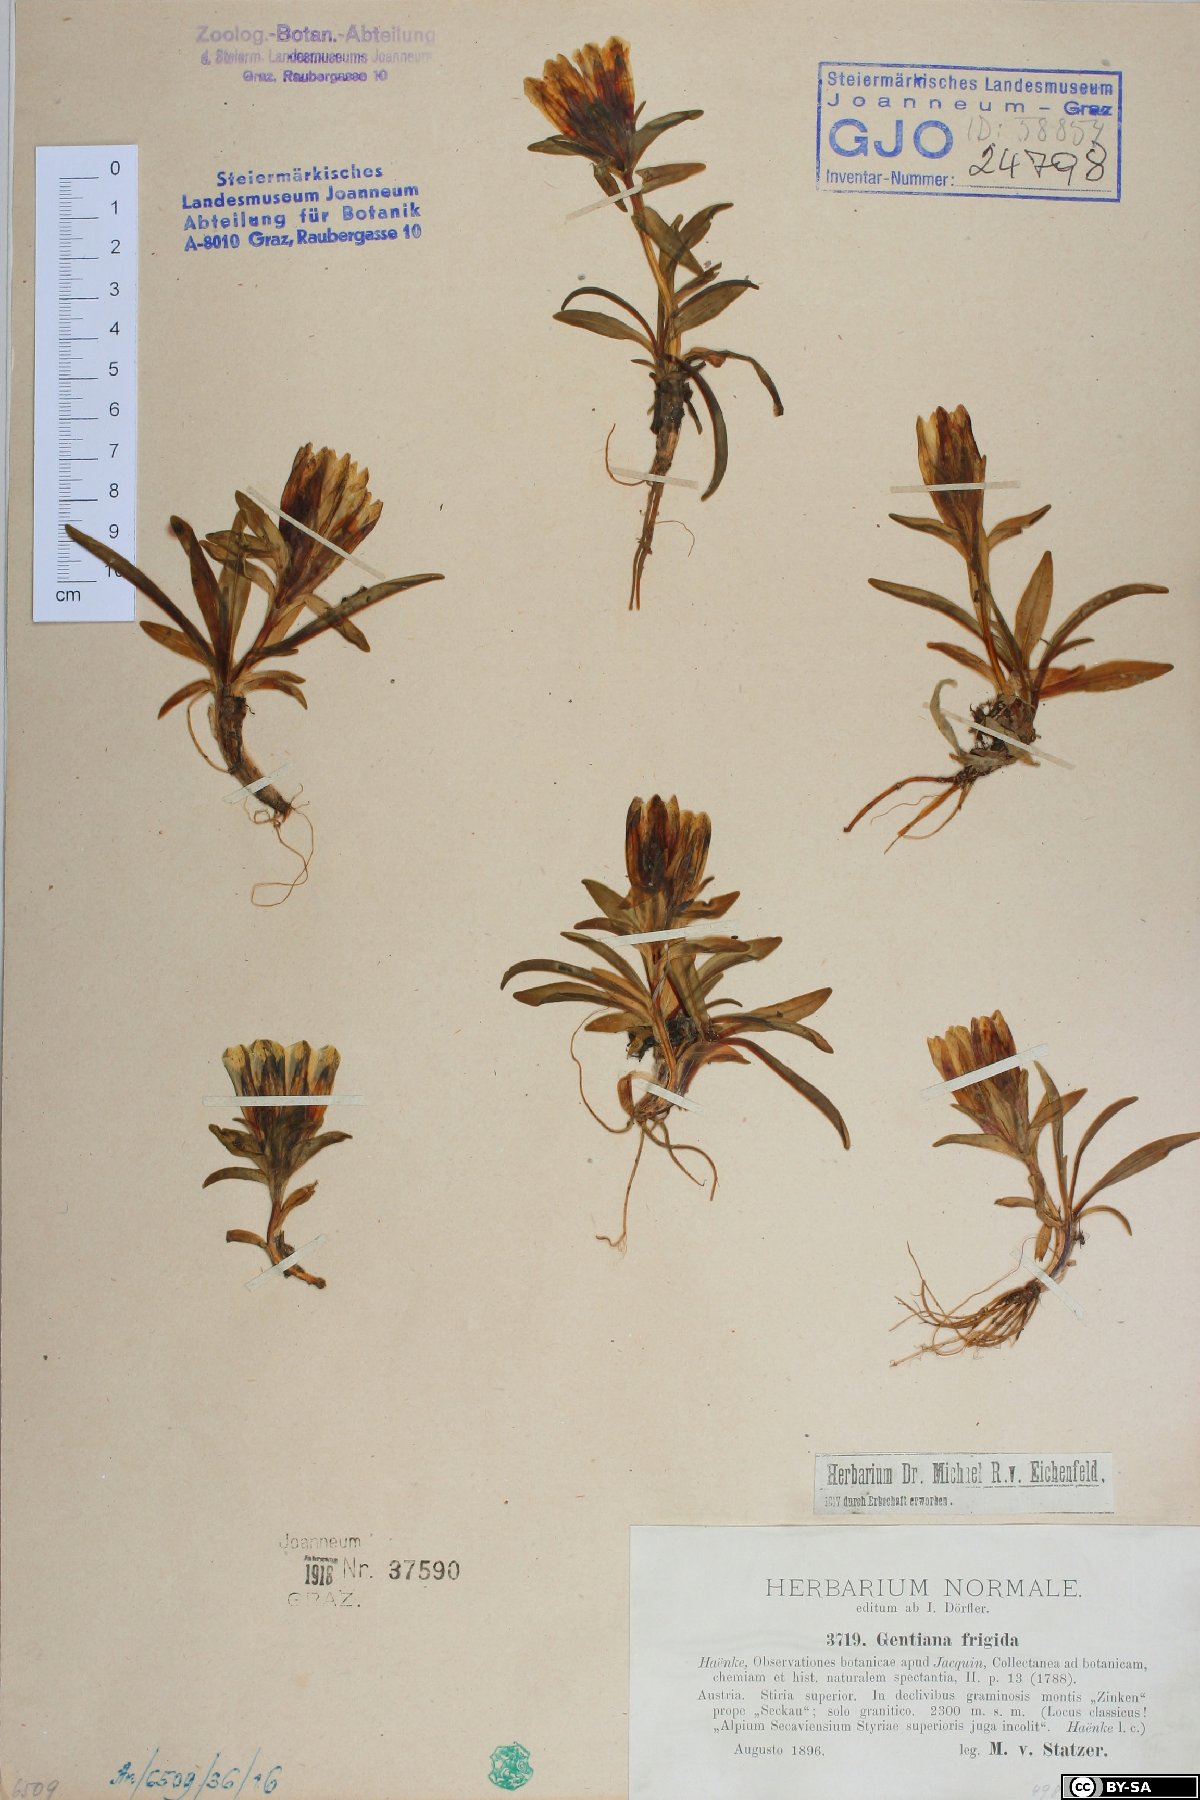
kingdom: Plantae
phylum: Tracheophyta
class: Magnoliopsida
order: Gentianales
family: Gentianaceae
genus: Gentiana
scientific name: Gentiana frigida
